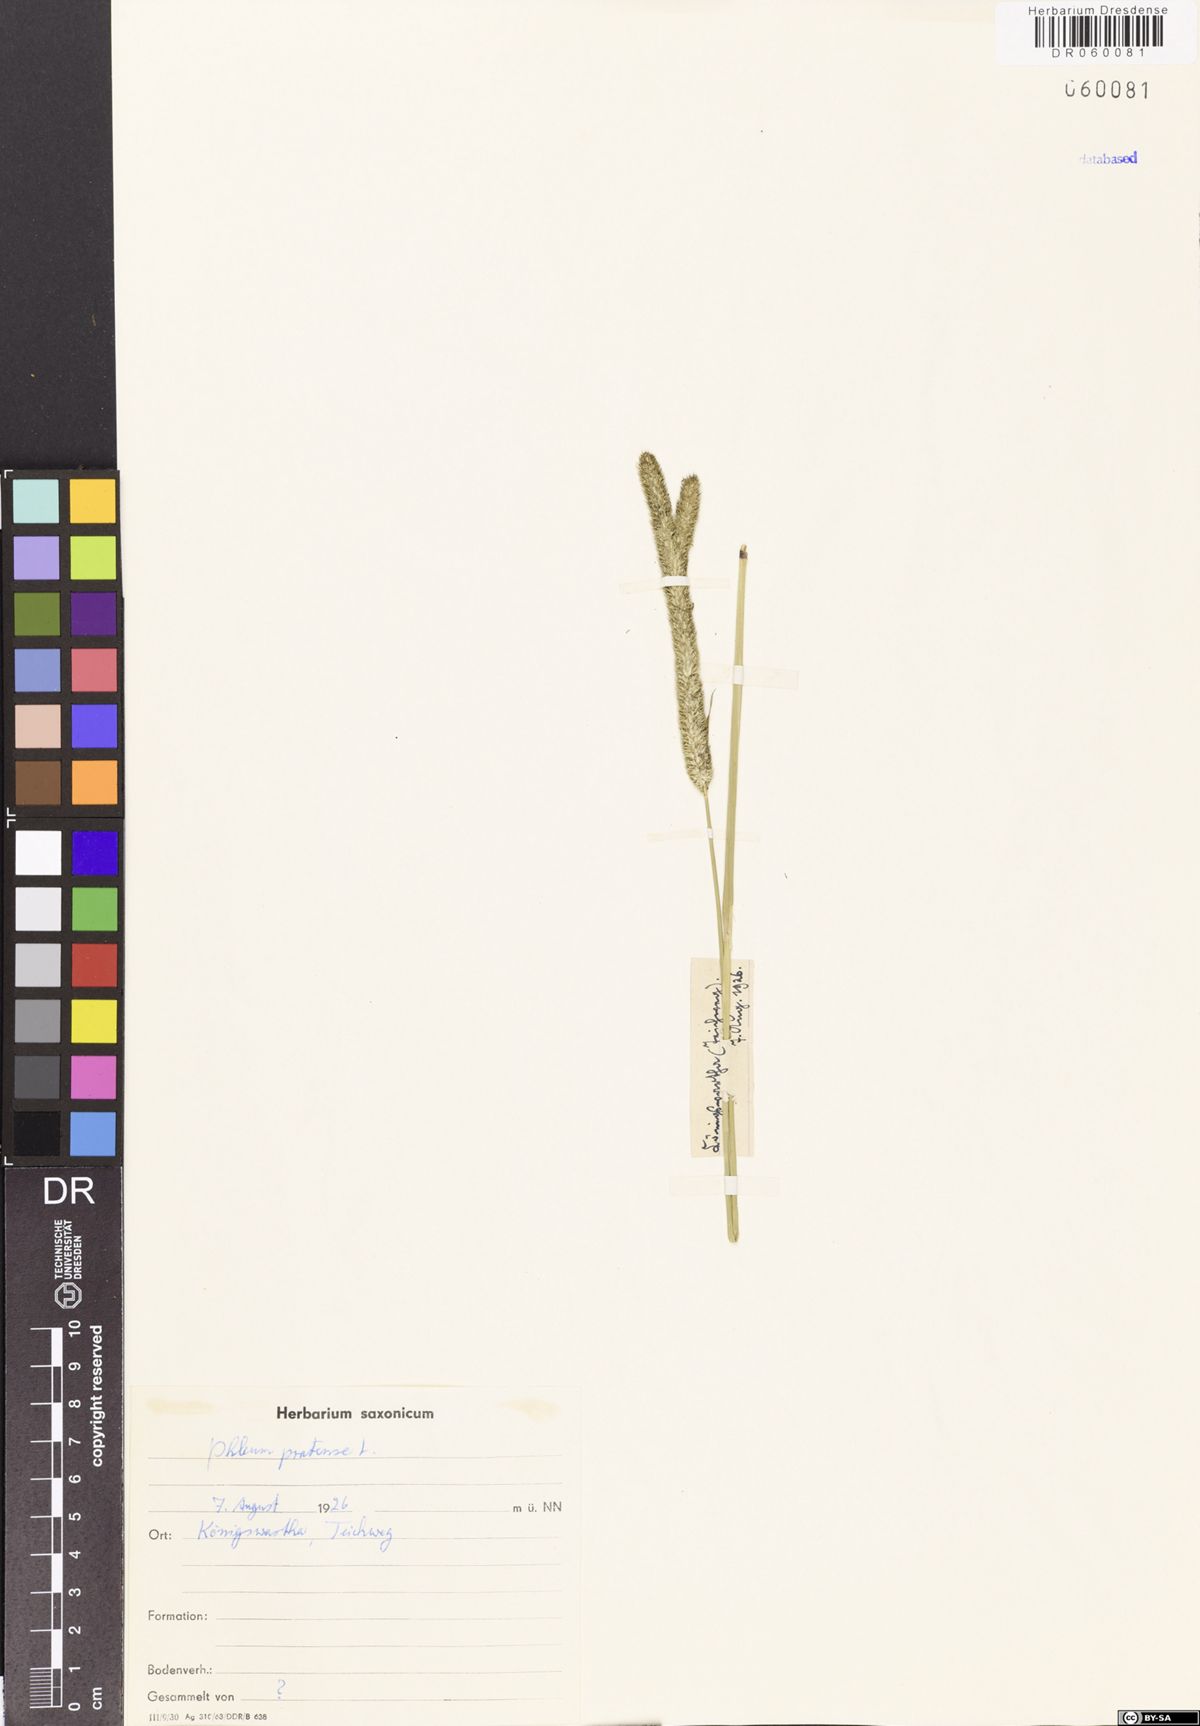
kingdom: Plantae
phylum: Tracheophyta
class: Liliopsida
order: Poales
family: Poaceae
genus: Phleum
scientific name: Phleum pratense
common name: Timothy grass
